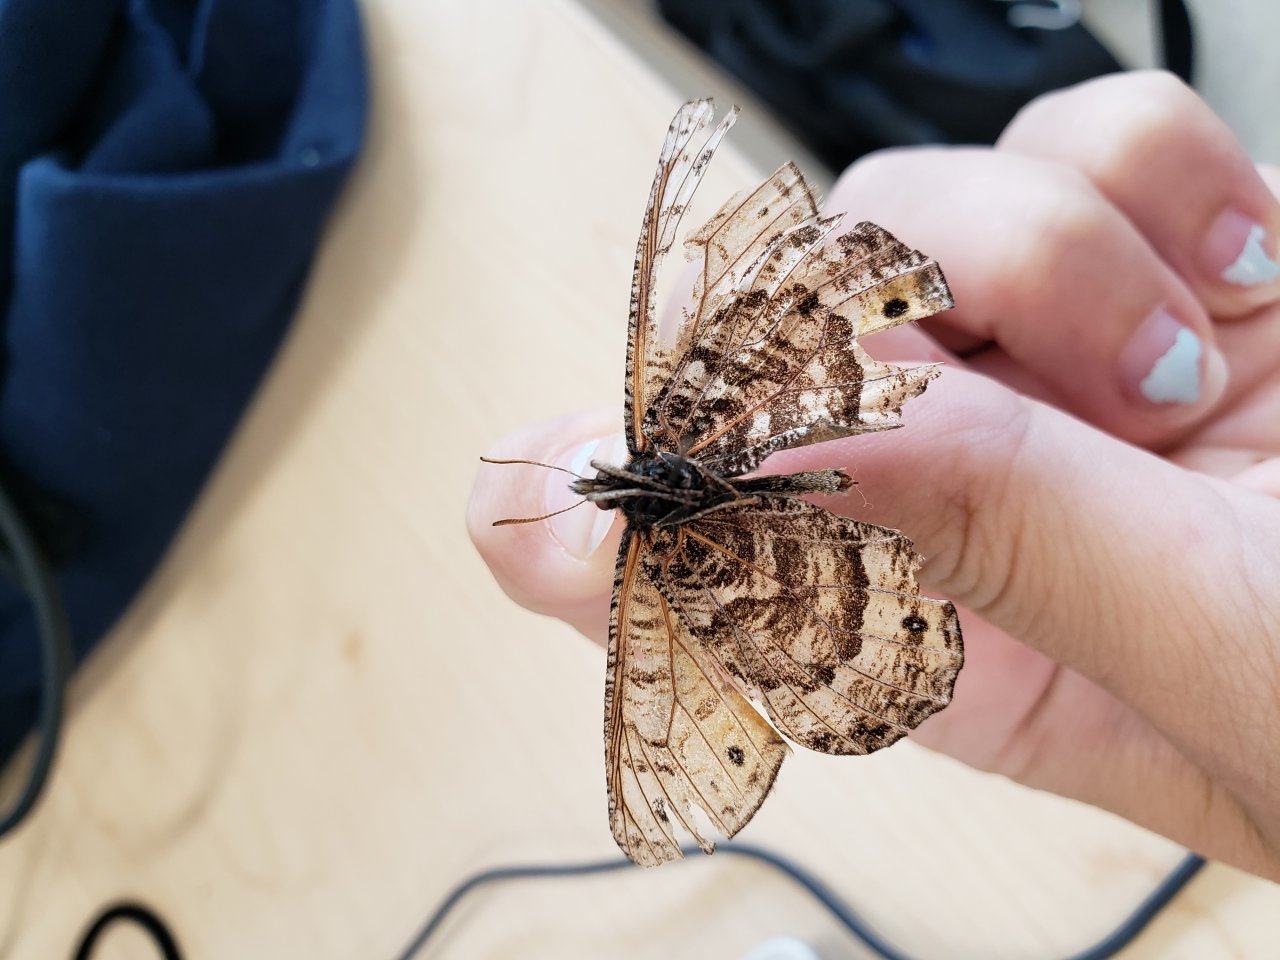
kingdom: Animalia
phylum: Arthropoda
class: Insecta
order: Lepidoptera
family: Nymphalidae
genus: Oeneis
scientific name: Oeneis bore
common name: White-veined Arctic
